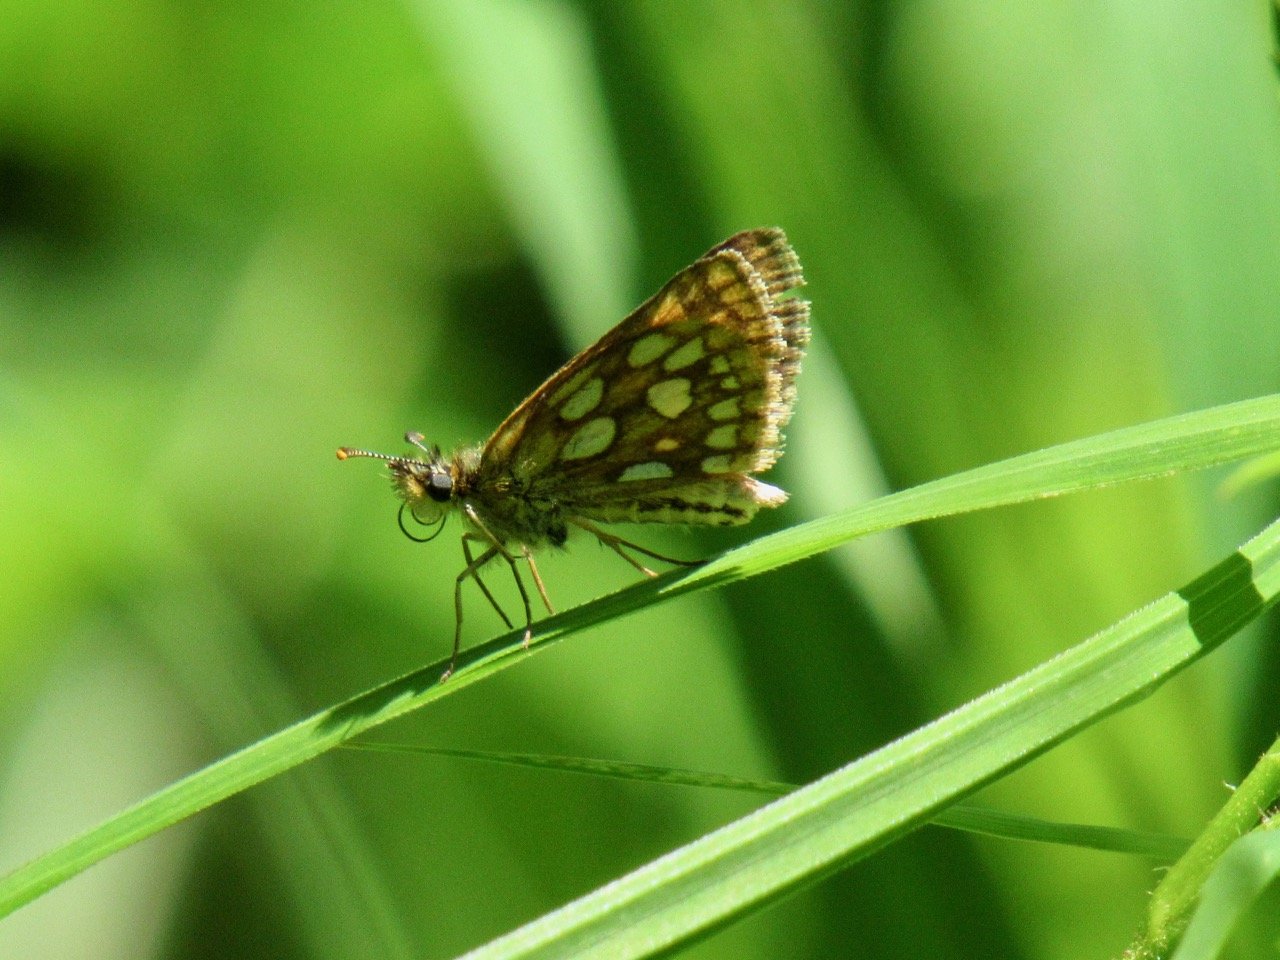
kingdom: Animalia
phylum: Arthropoda
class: Insecta
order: Lepidoptera
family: Hesperiidae
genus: Carterocephalus
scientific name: Carterocephalus palaemon
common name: Chequered Skipper
